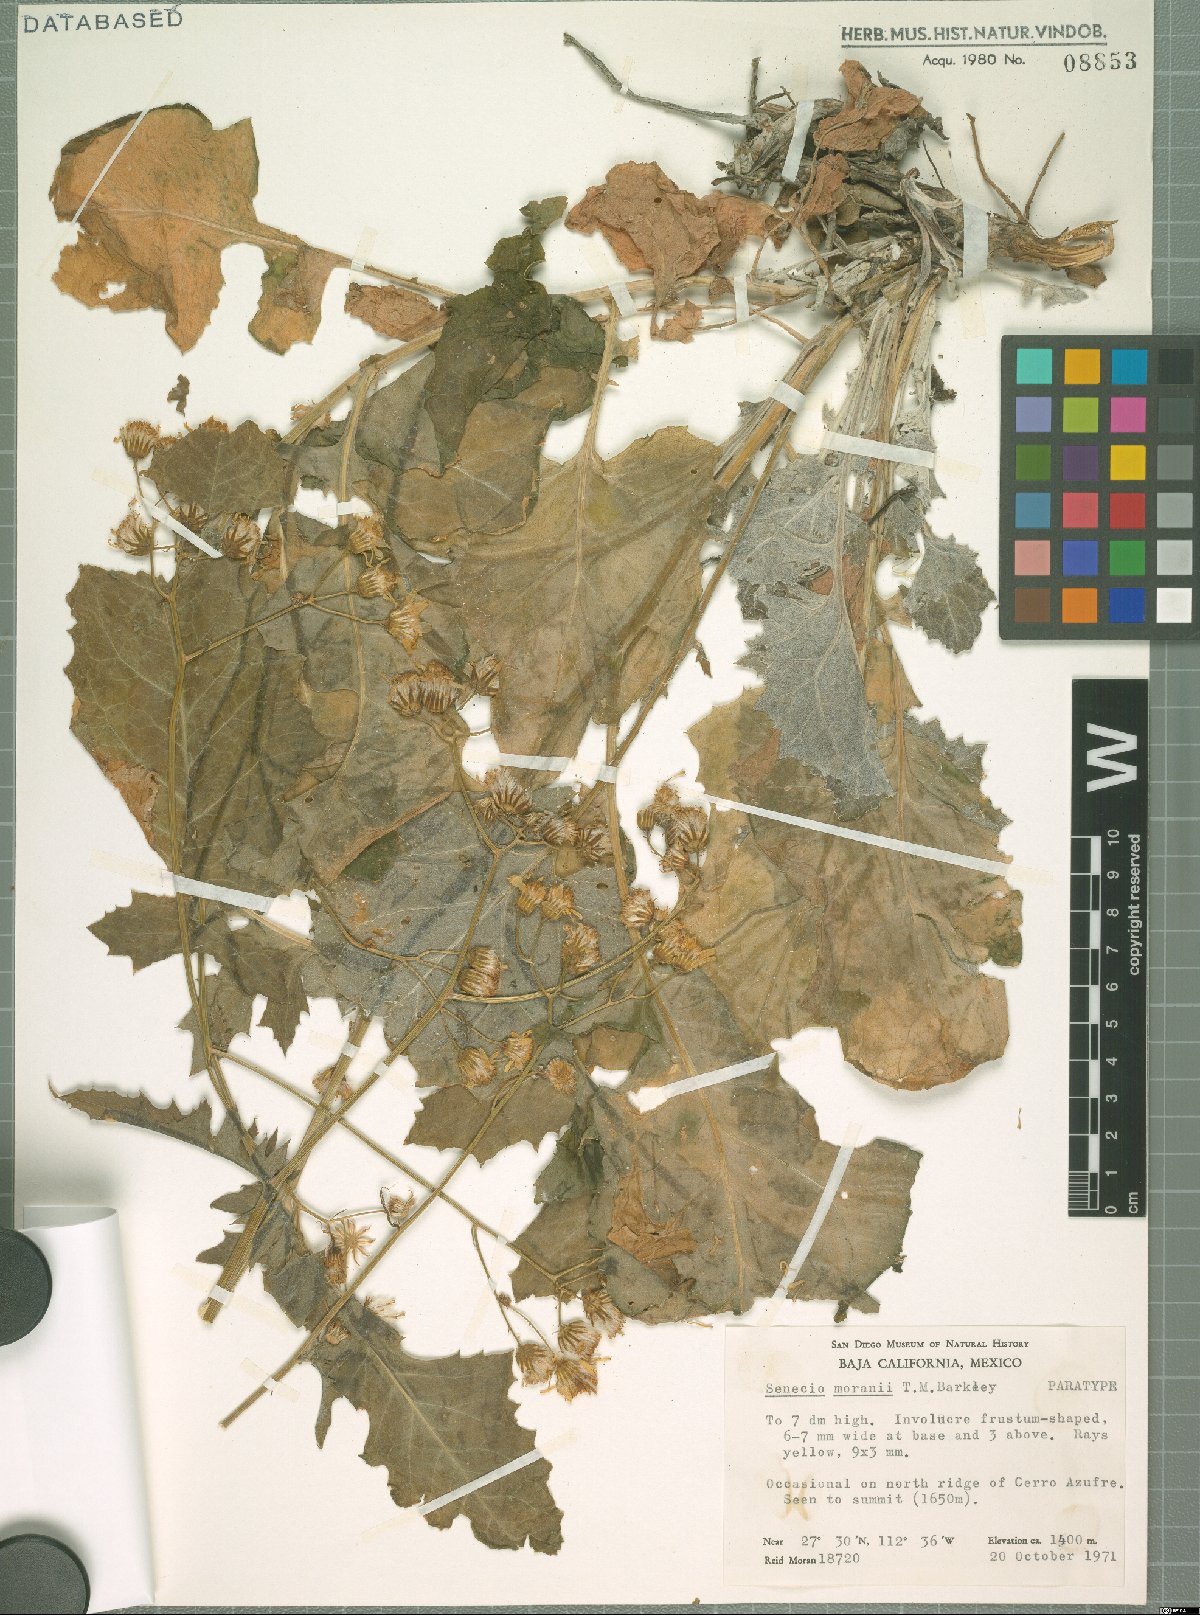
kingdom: Plantae
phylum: Tracheophyta
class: Magnoliopsida
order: Asterales
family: Asteraceae
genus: Packera
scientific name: Packera moranii
